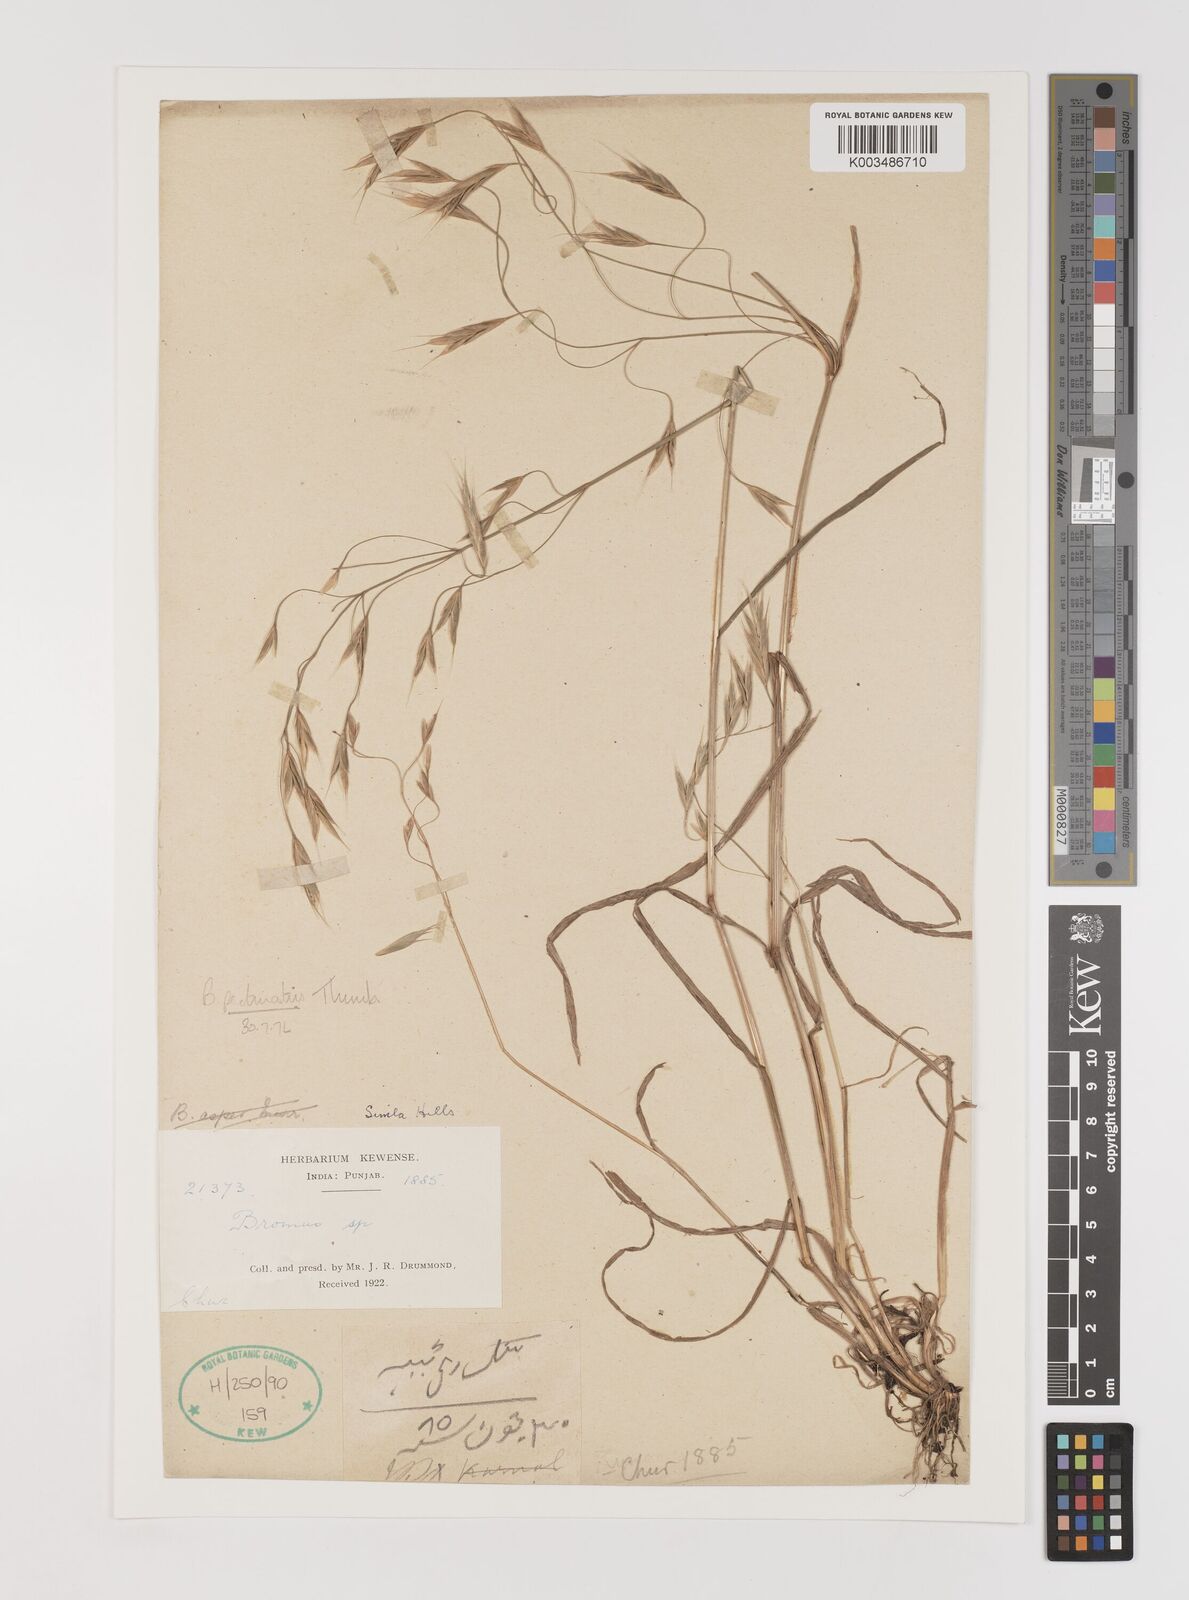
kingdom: Plantae
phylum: Tracheophyta
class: Liliopsida
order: Poales
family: Poaceae
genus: Bromus
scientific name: Bromus pectinatus
